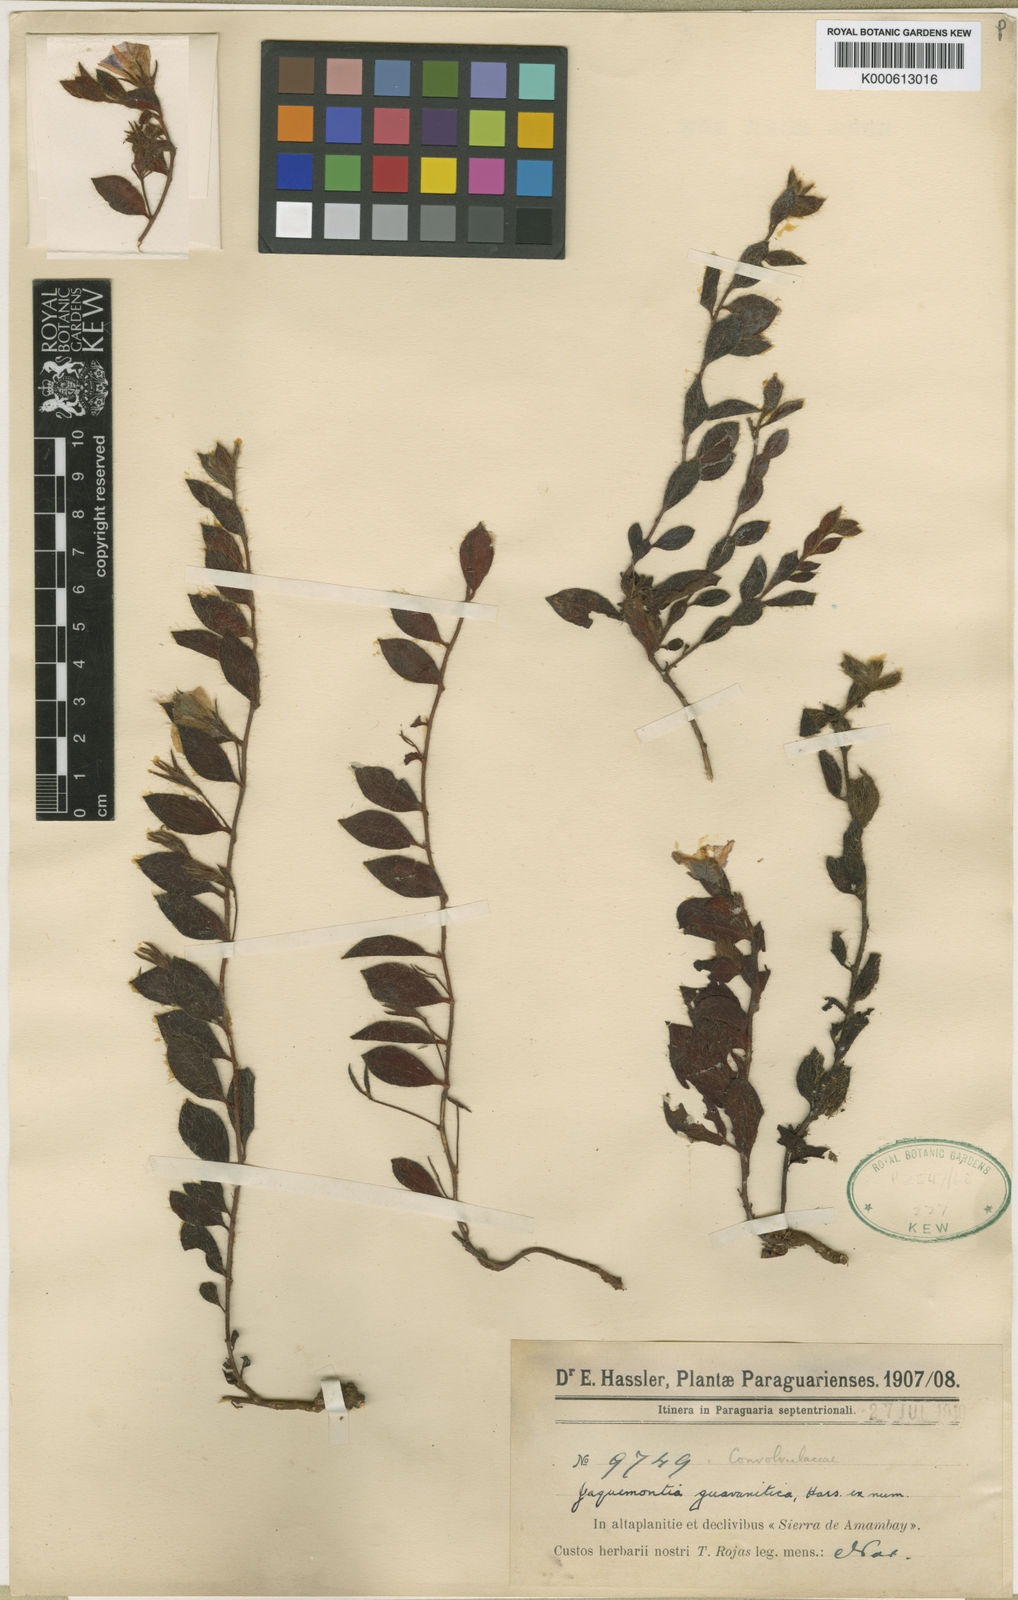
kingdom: Plantae
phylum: Tracheophyta
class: Magnoliopsida
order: Solanales
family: Convolvulaceae
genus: Jacquemontia
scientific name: Jacquemontia guaranitica
